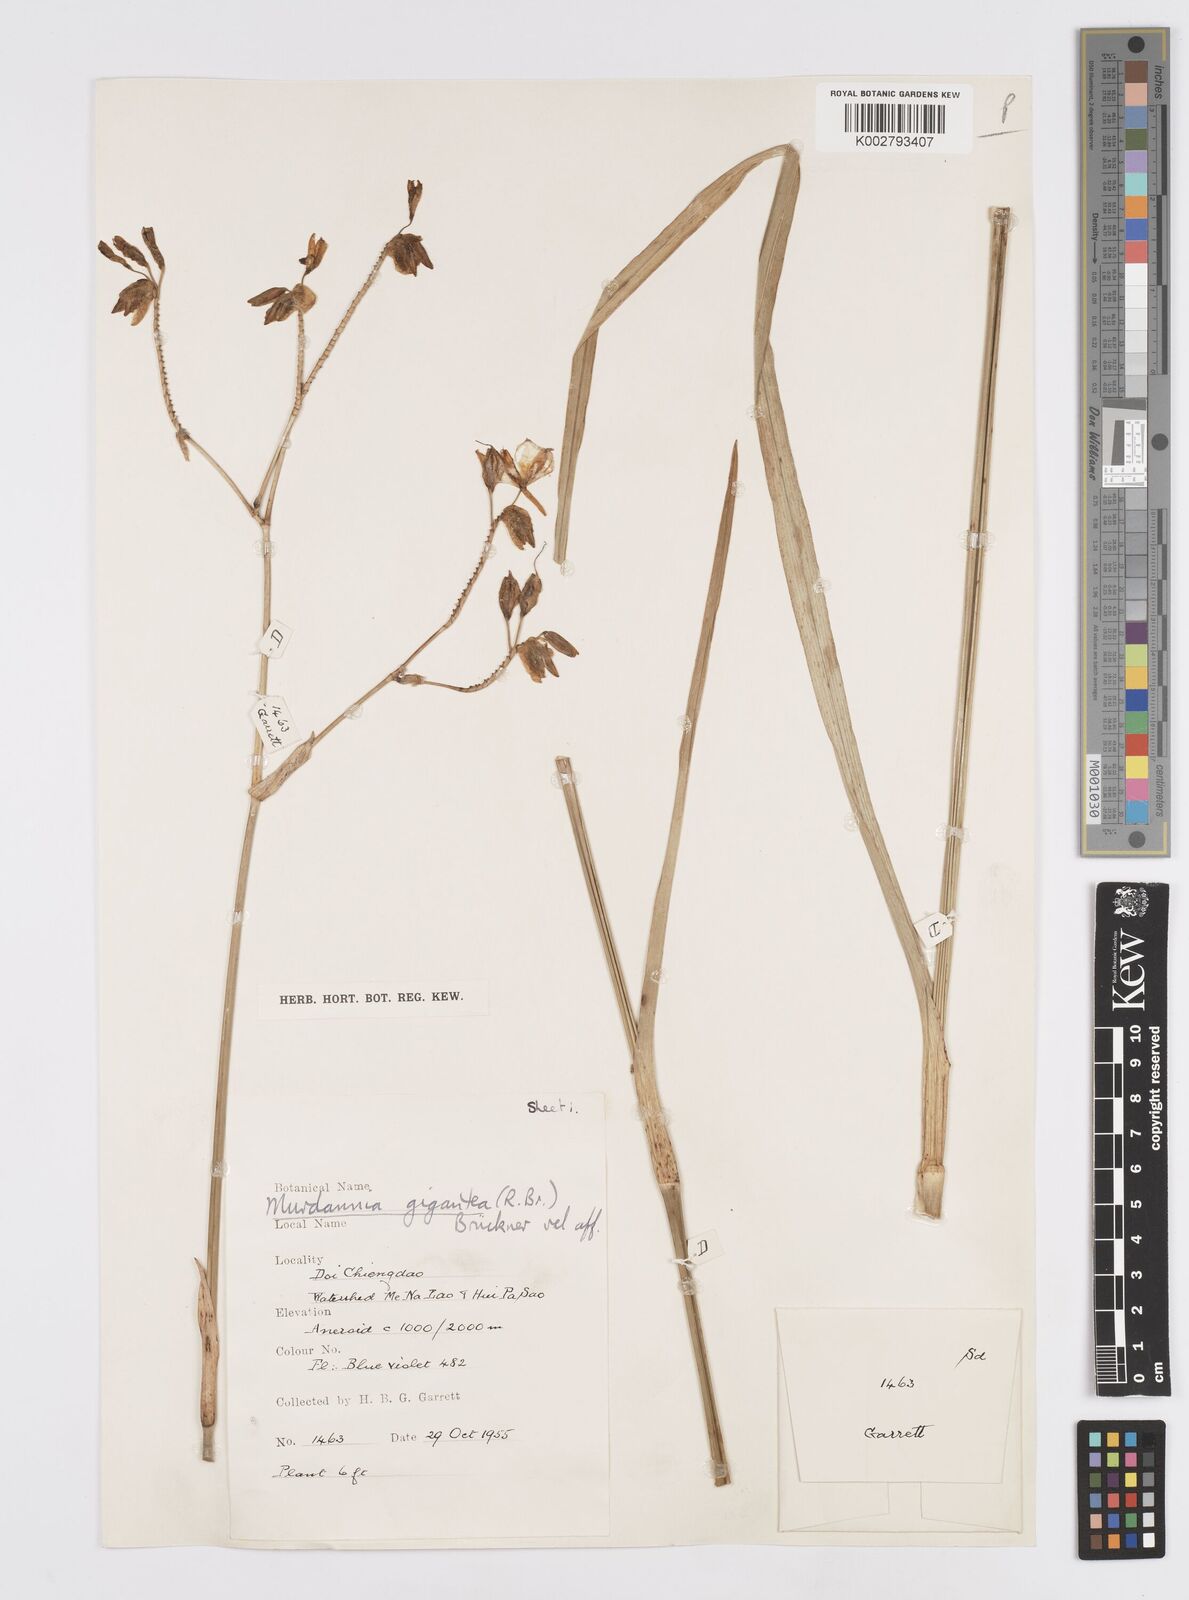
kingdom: Plantae
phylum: Tracheophyta
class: Liliopsida
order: Commelinales
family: Commelinaceae
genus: Murdannia
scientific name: Murdannia gigantea
